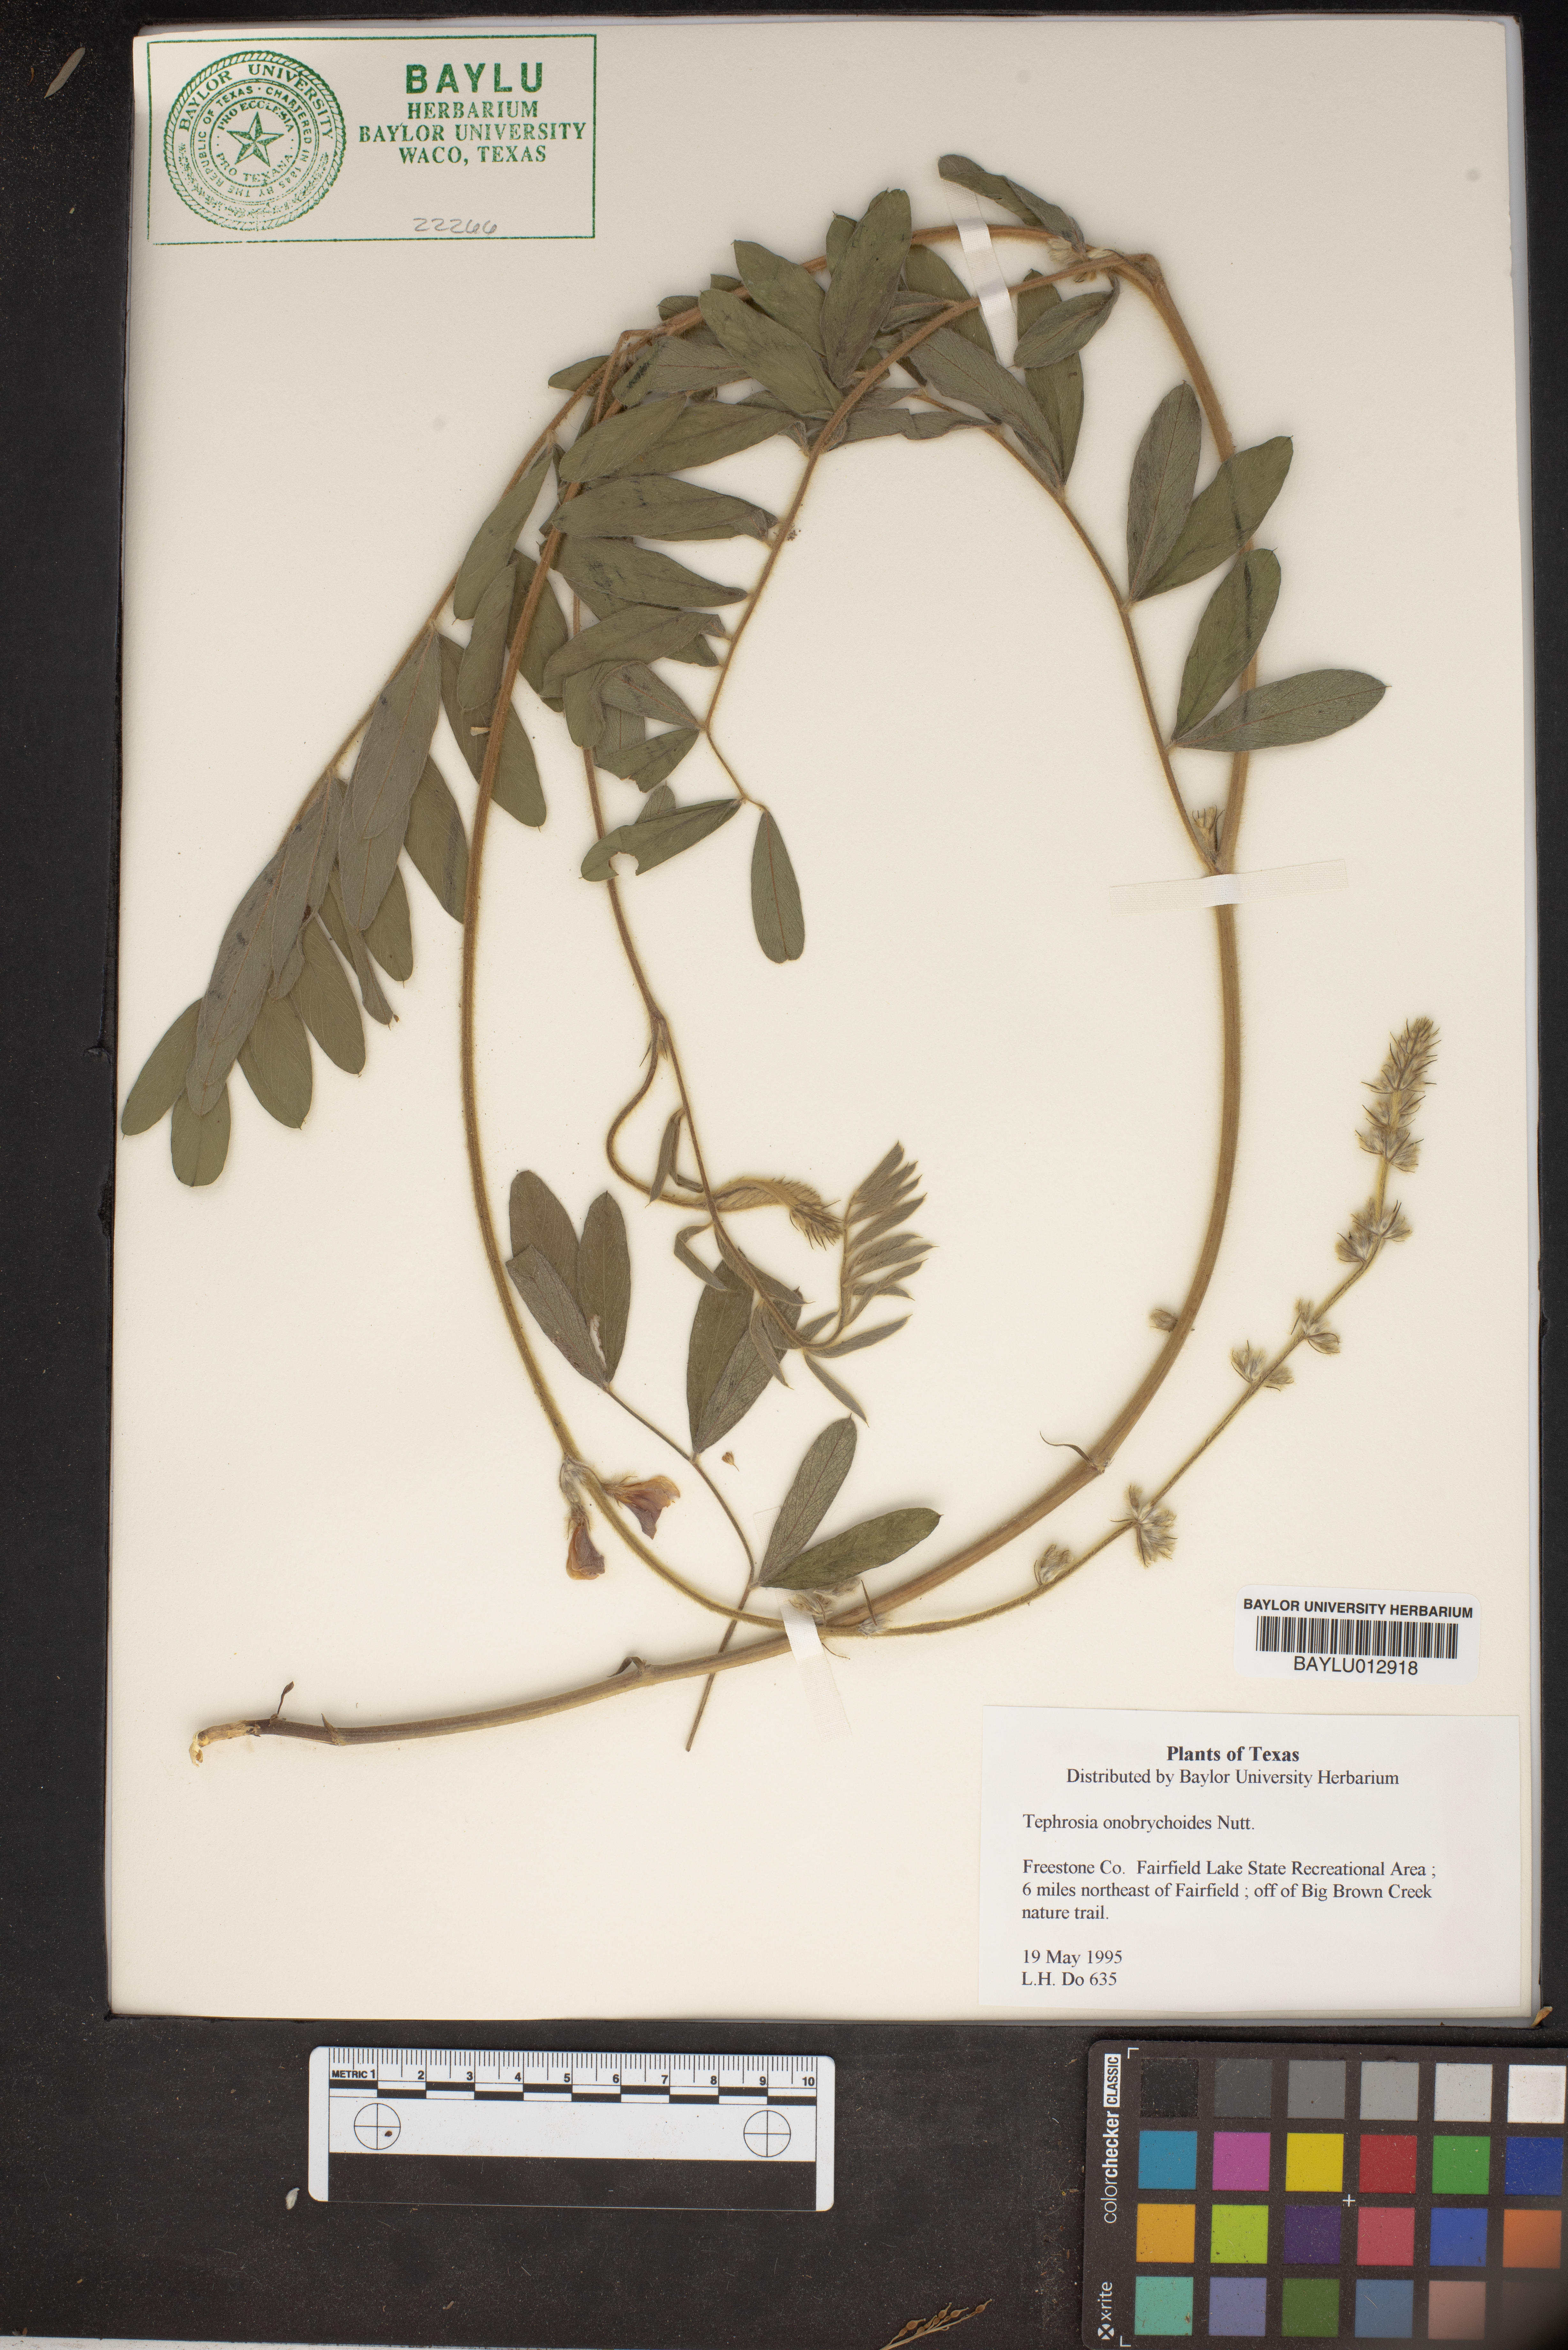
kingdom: Plantae
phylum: Tracheophyta
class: Magnoliopsida
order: Fabales
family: Fabaceae
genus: Tephrosia
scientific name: Tephrosia onobrychoides
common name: Multi-bloom hoary-pea
